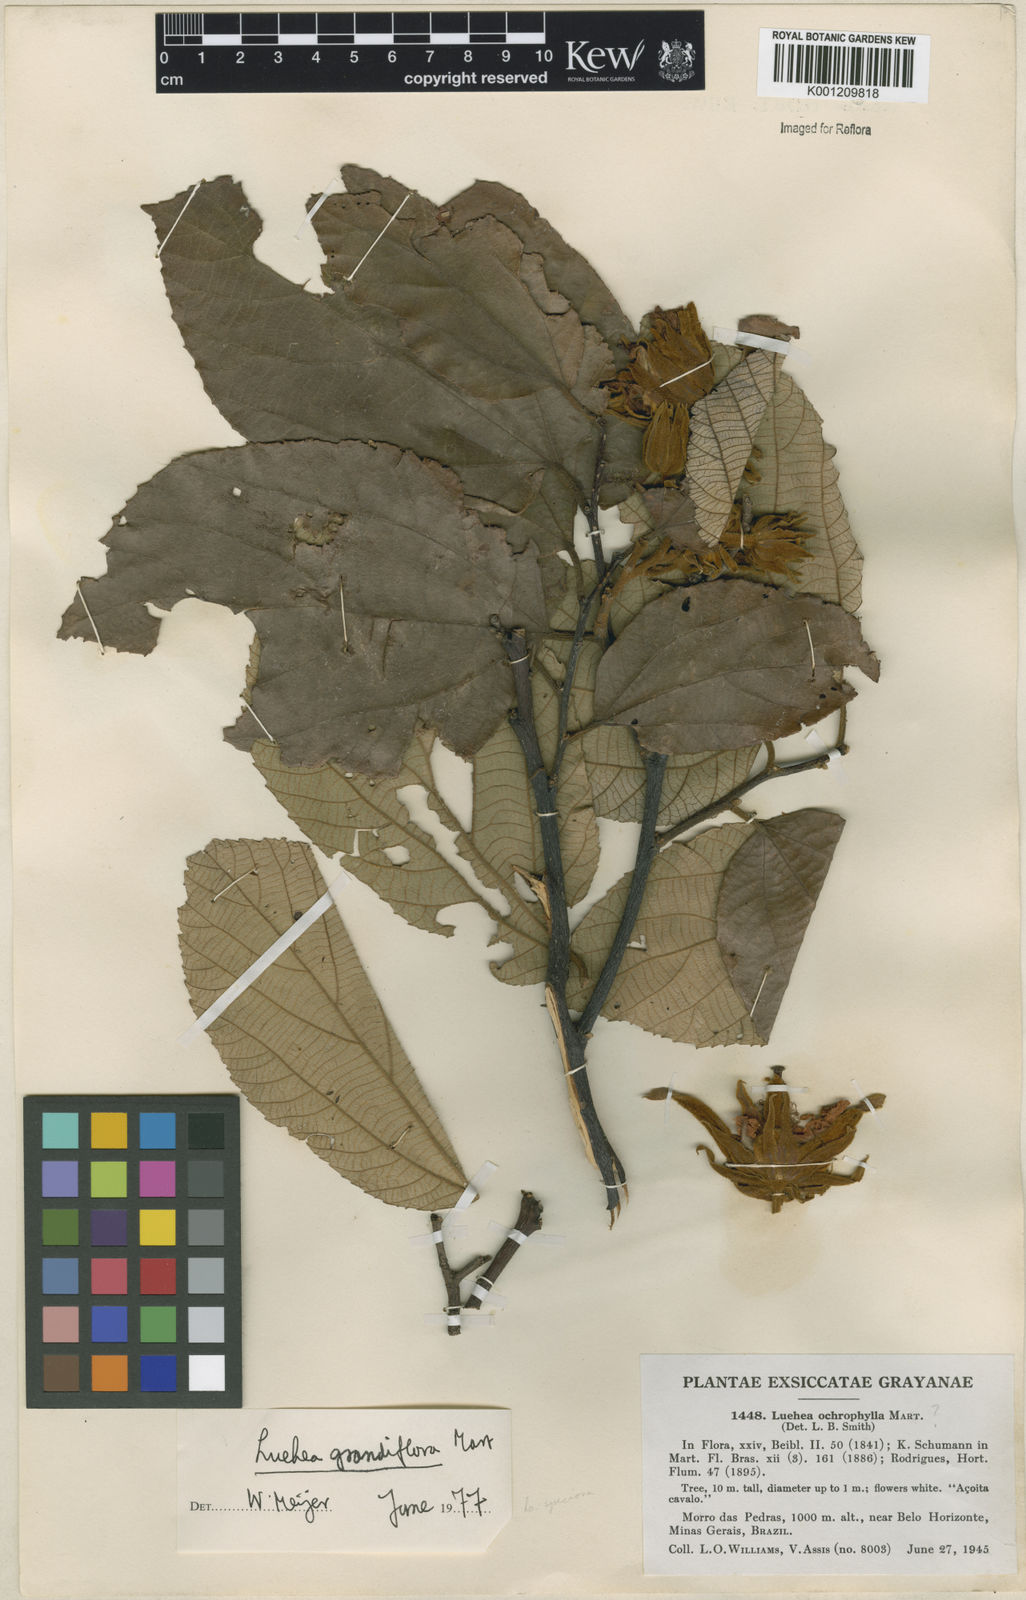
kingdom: Plantae
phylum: Tracheophyta
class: Magnoliopsida
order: Malvales
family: Malvaceae
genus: Luehea
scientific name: Luehea grandiflora
